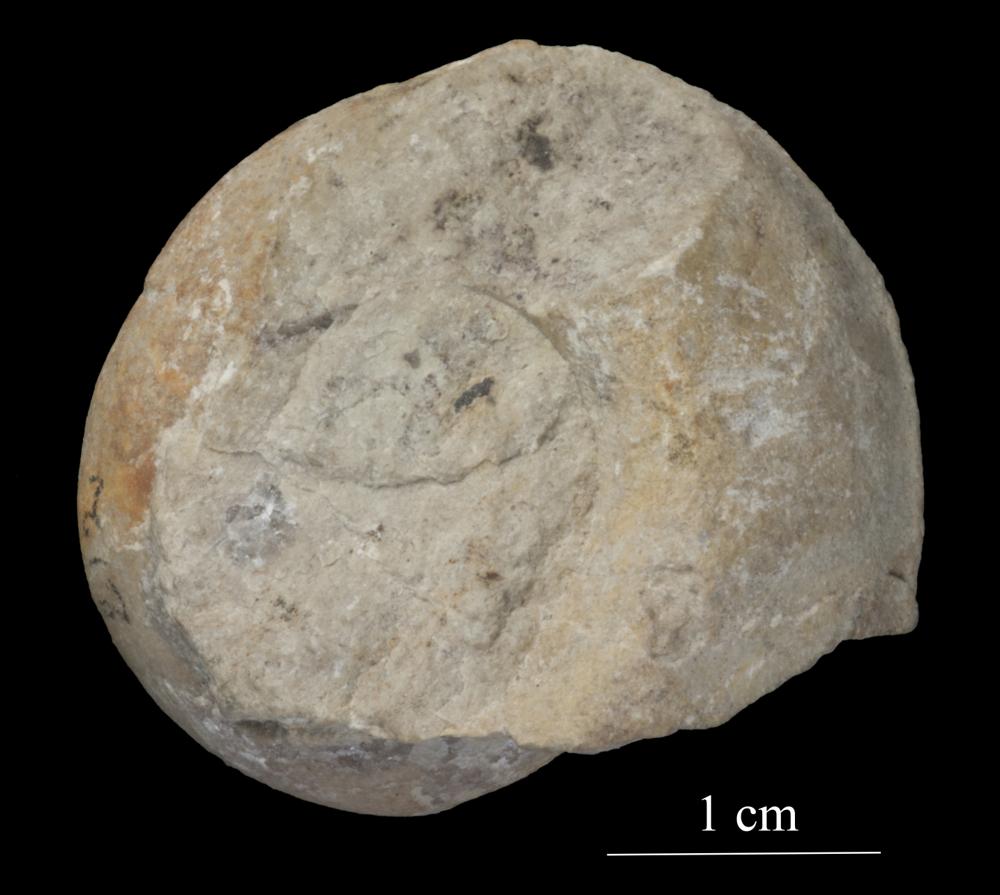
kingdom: Animalia
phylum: Mollusca
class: Gastropoda
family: Bucaniidae
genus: Megalomphala
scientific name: Megalomphala Bucania crassa
